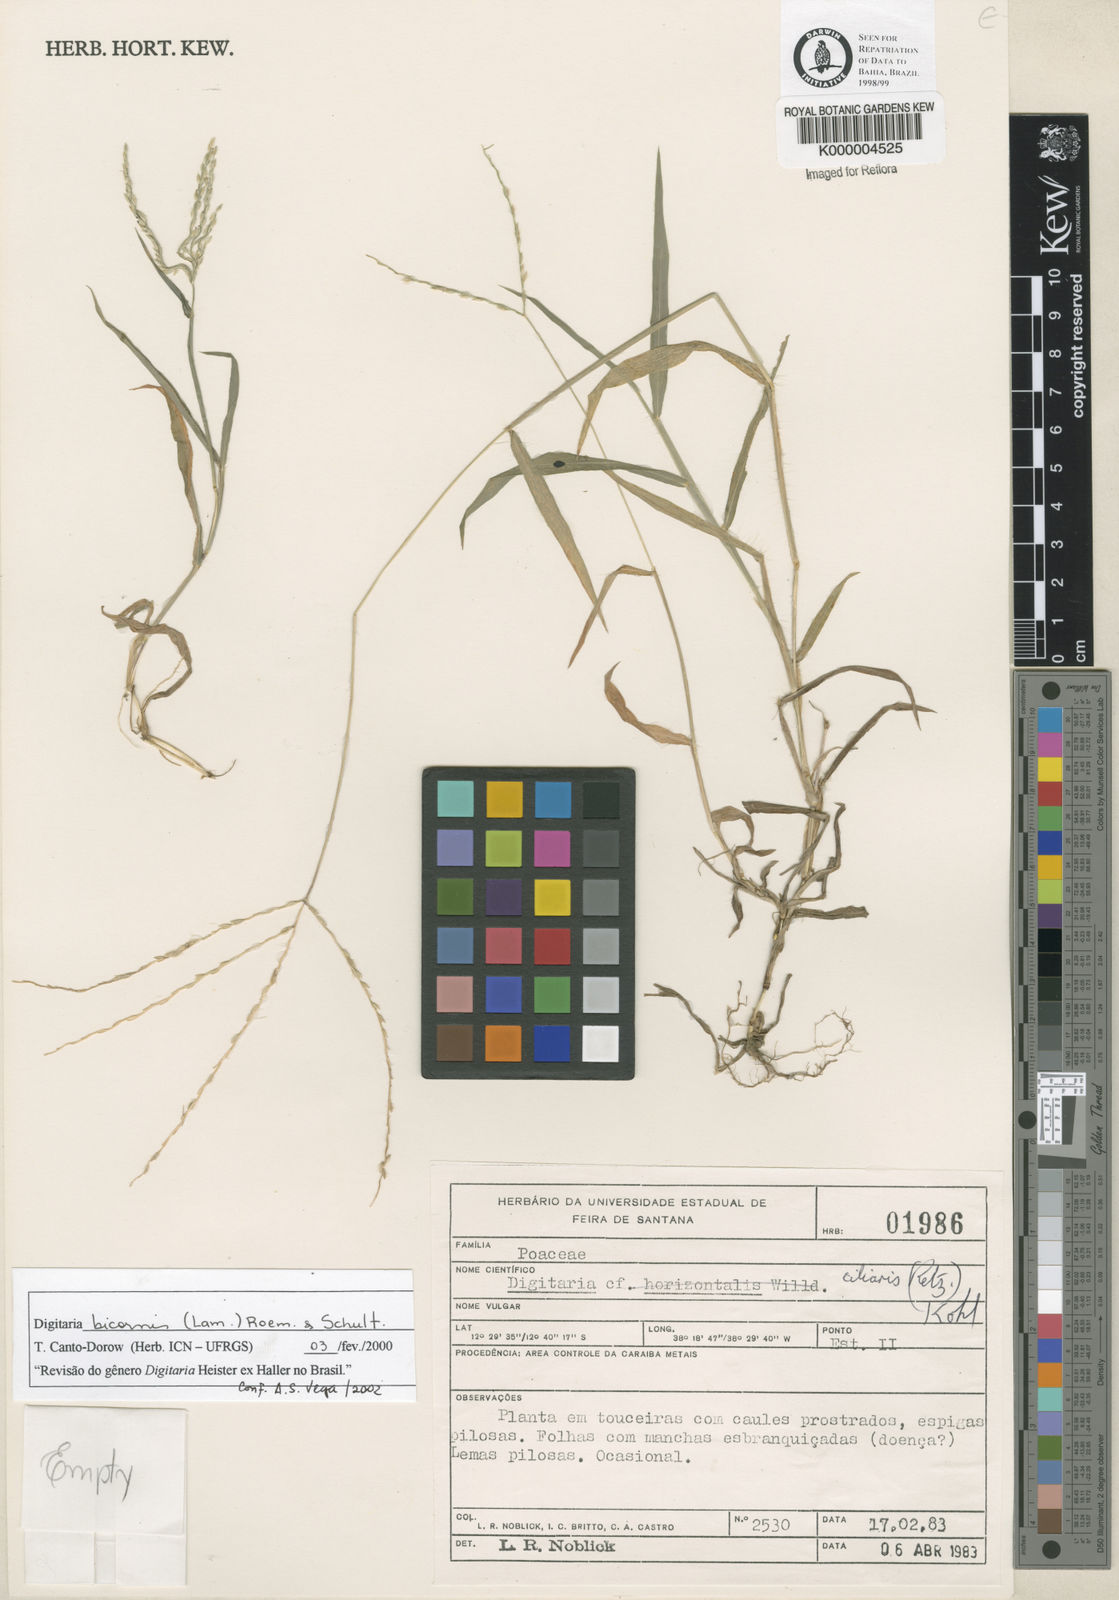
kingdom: Plantae
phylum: Tracheophyta
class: Liliopsida
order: Poales
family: Poaceae
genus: Digitaria
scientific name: Digitaria ciliaris
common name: Tropical finger-grass
